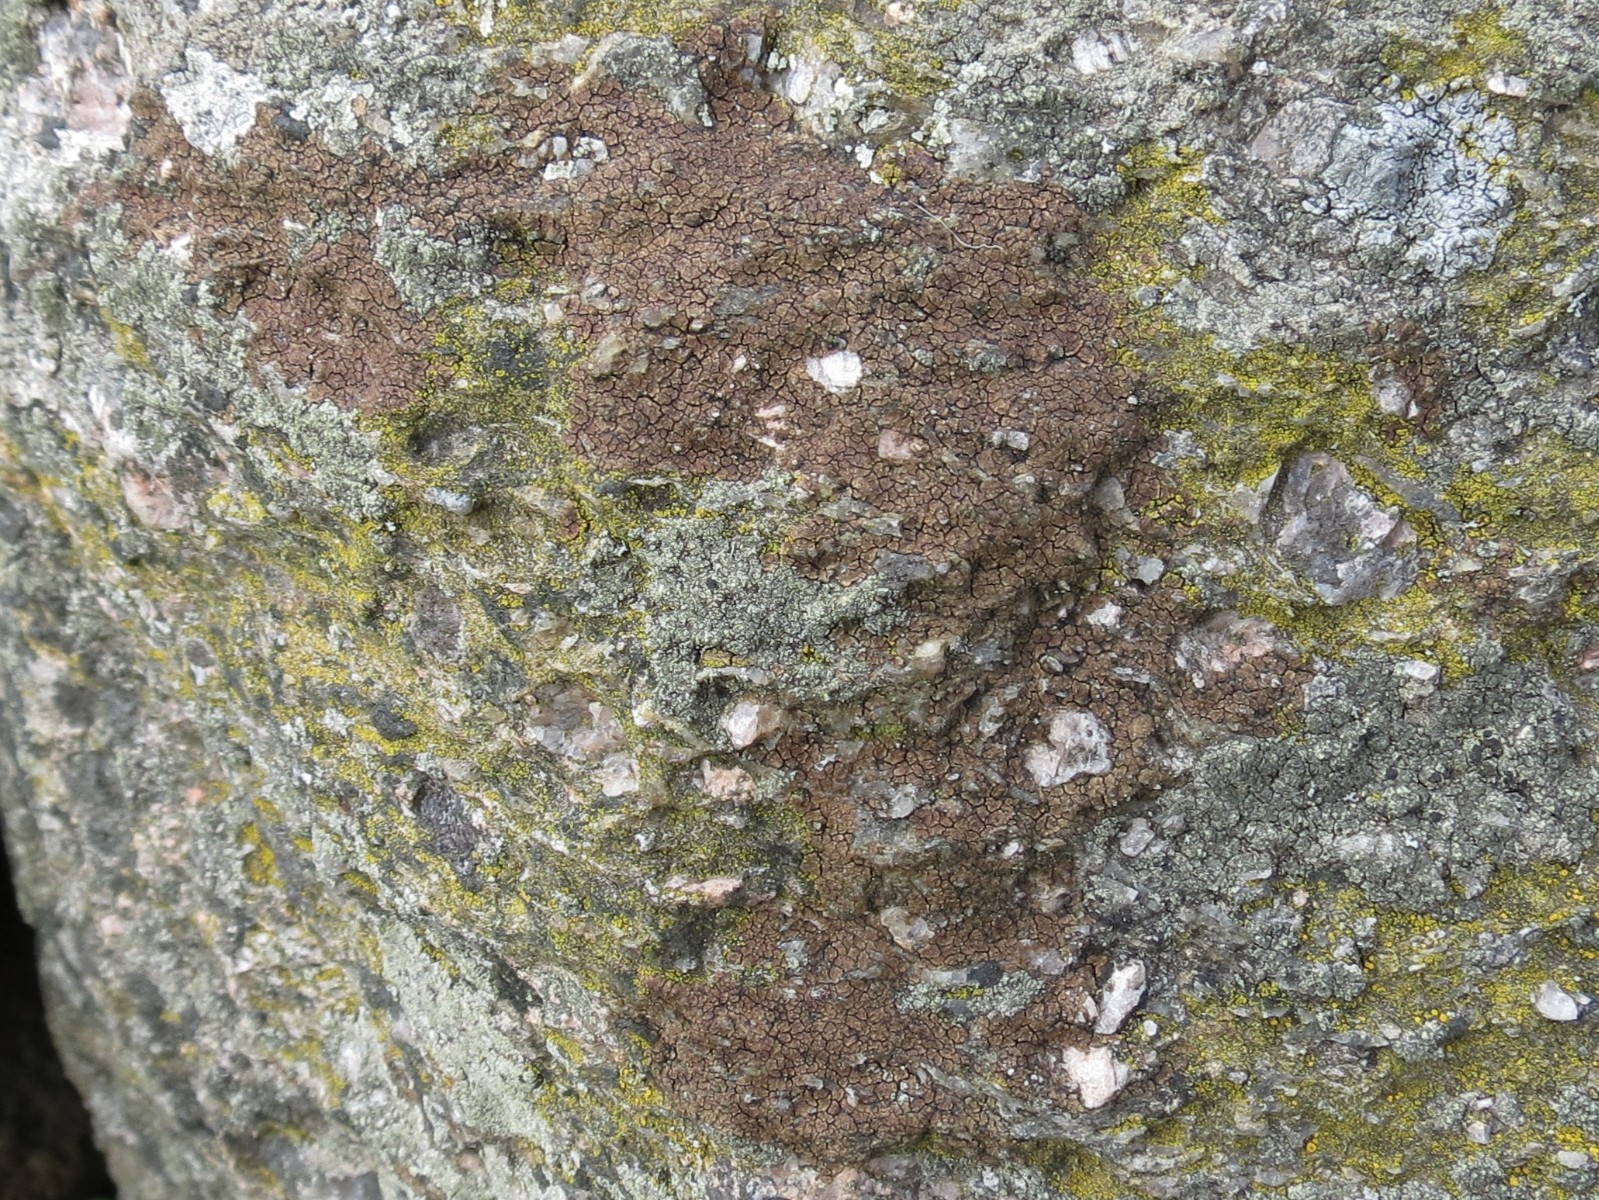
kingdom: Fungi
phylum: Ascomycota
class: Lecanoromycetes
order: Acarosporales
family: Acarosporaceae
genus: Acarospora
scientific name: Acarospora fuscata
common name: brun småsporelav
